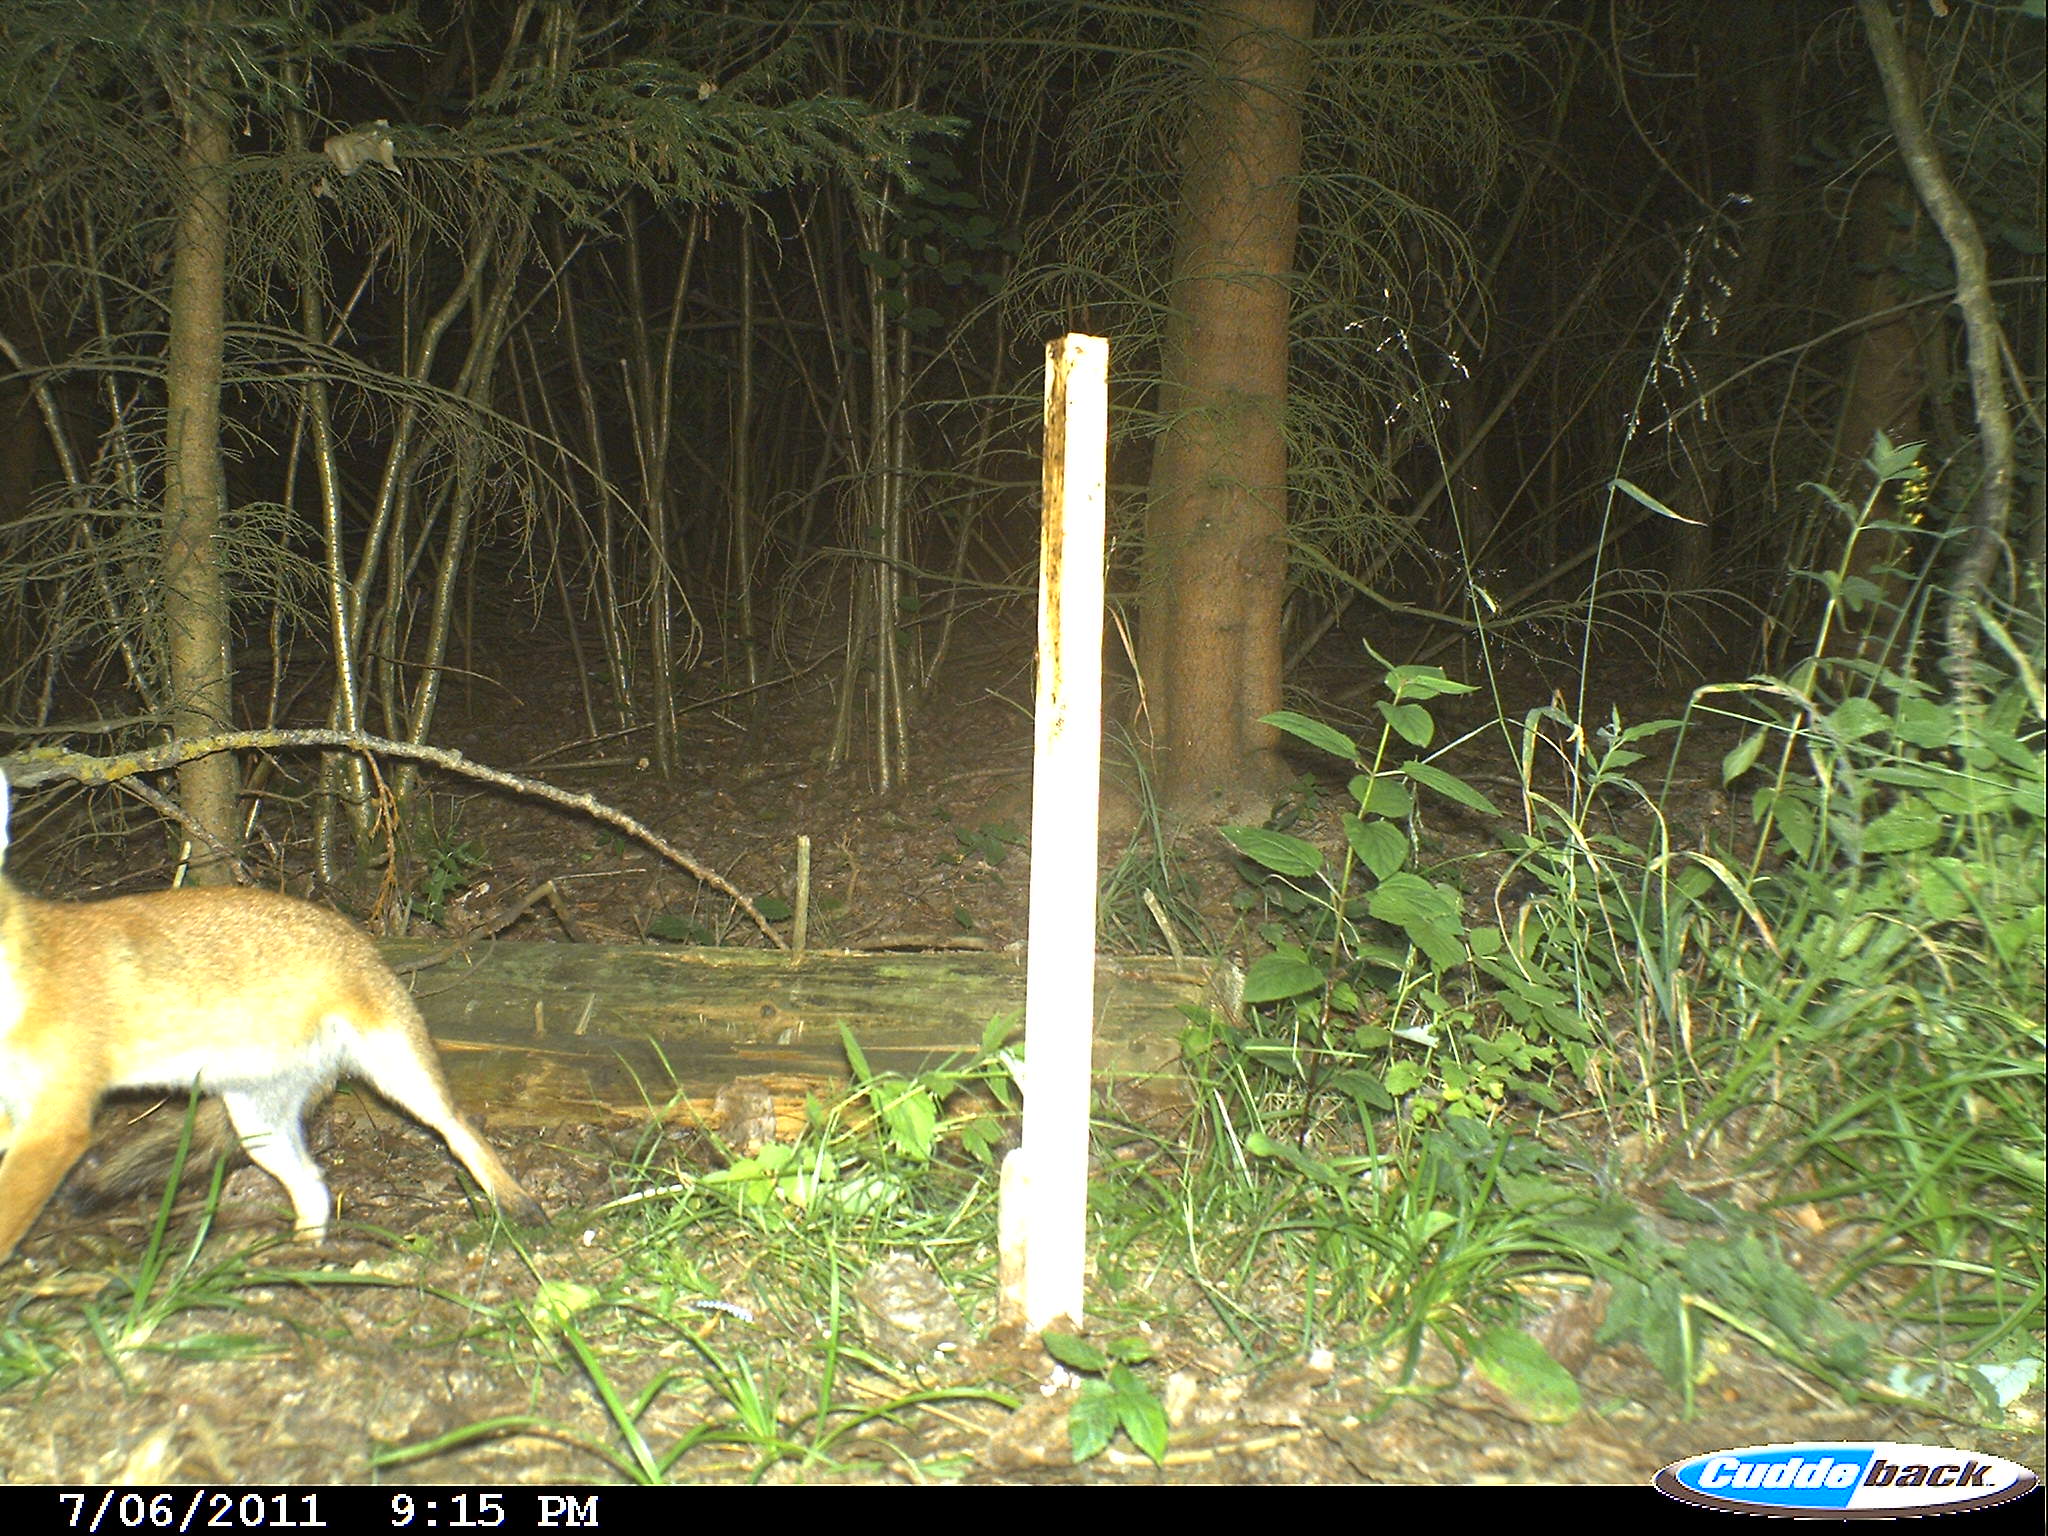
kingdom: Animalia
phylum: Chordata
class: Mammalia
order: Carnivora
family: Canidae
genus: Vulpes
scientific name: Vulpes vulpes
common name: Red fox
